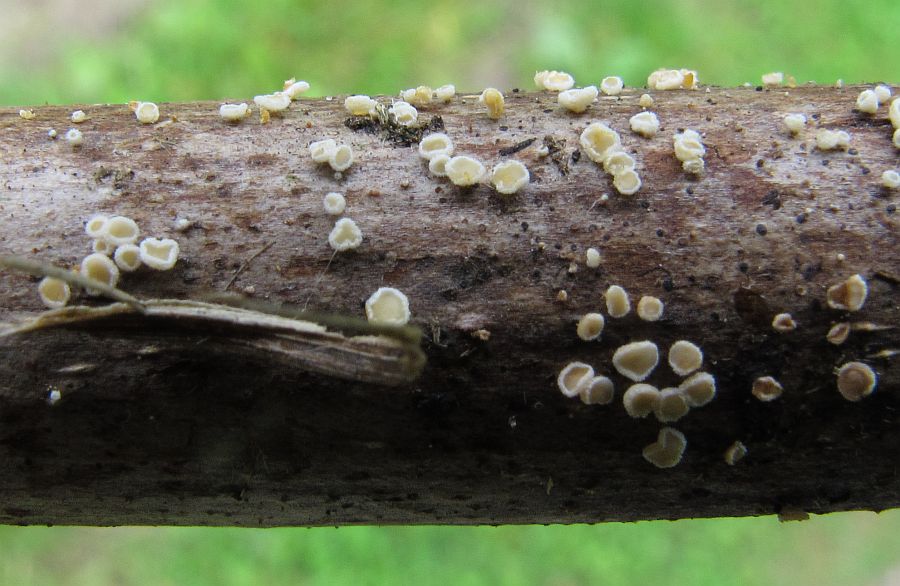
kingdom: Fungi
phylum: Ascomycota
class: Leotiomycetes
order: Helotiales
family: Lachnaceae
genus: Capitotricha
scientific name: Capitotricha rubi
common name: orangegul frynseskive
